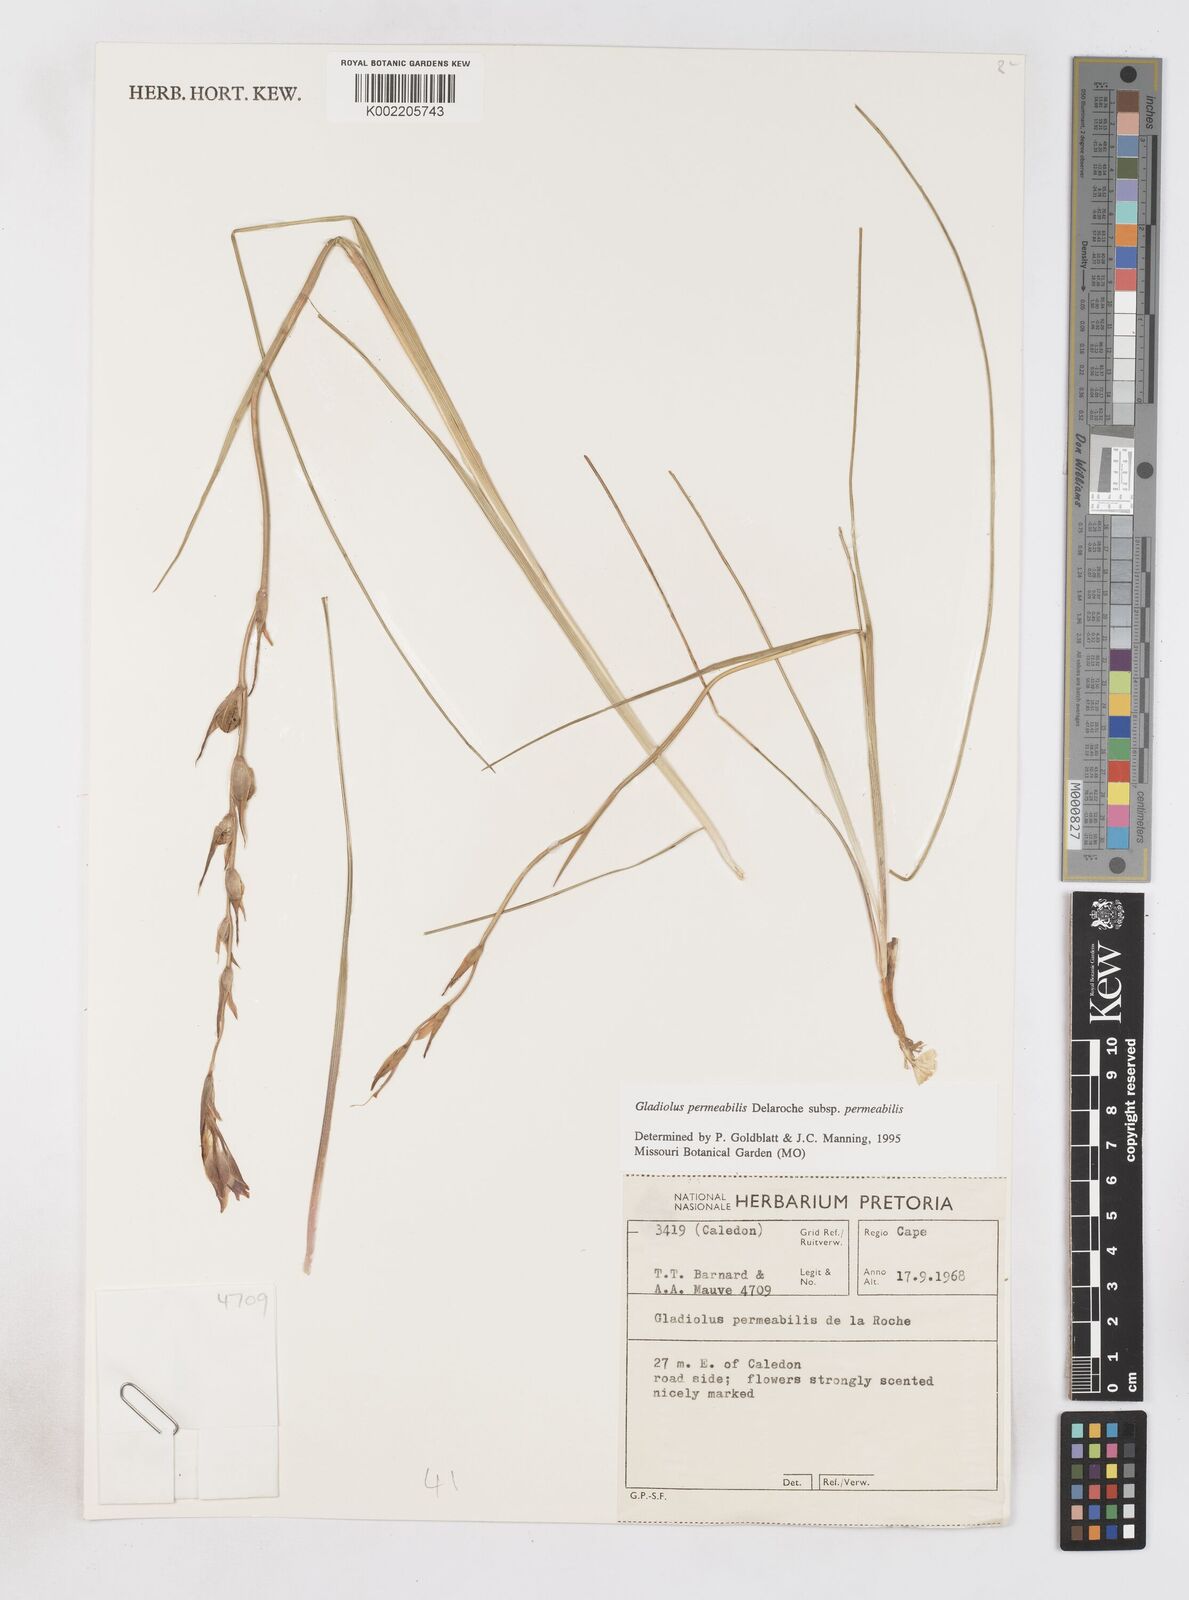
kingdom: Plantae
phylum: Tracheophyta
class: Liliopsida
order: Asparagales
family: Iridaceae
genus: Gladiolus
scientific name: Gladiolus permeabilis
